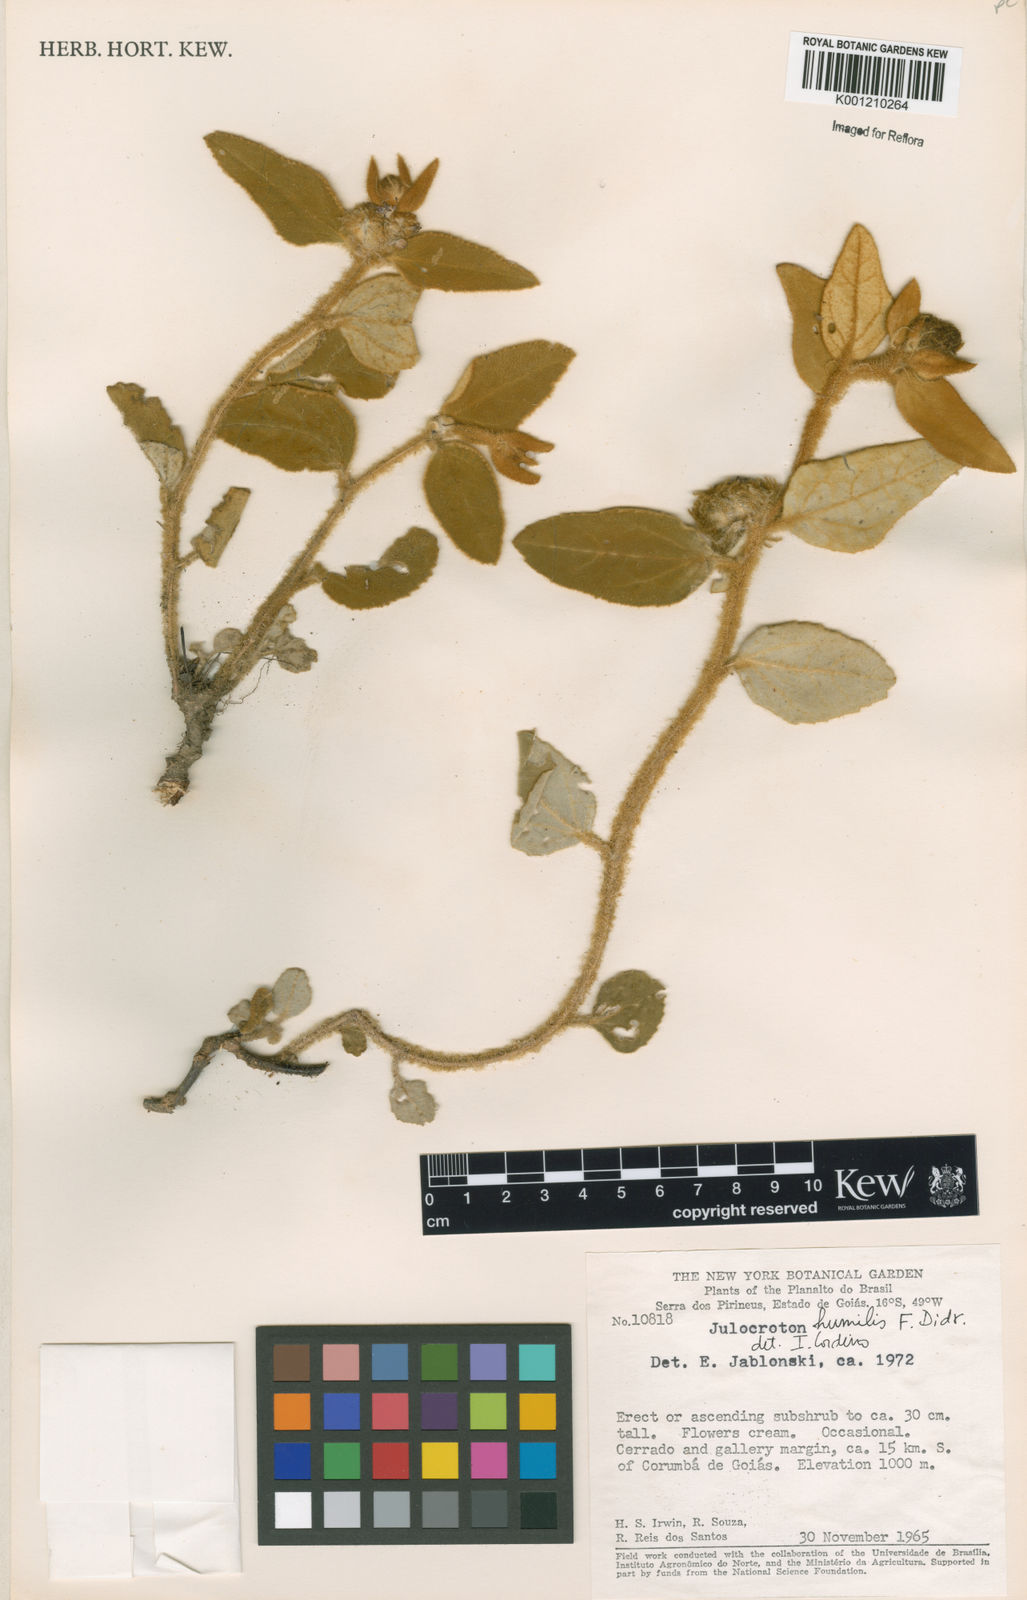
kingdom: Plantae
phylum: Tracheophyta
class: Magnoliopsida
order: Malpighiales
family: Euphorbiaceae
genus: Croton
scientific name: Croton solanaceus
